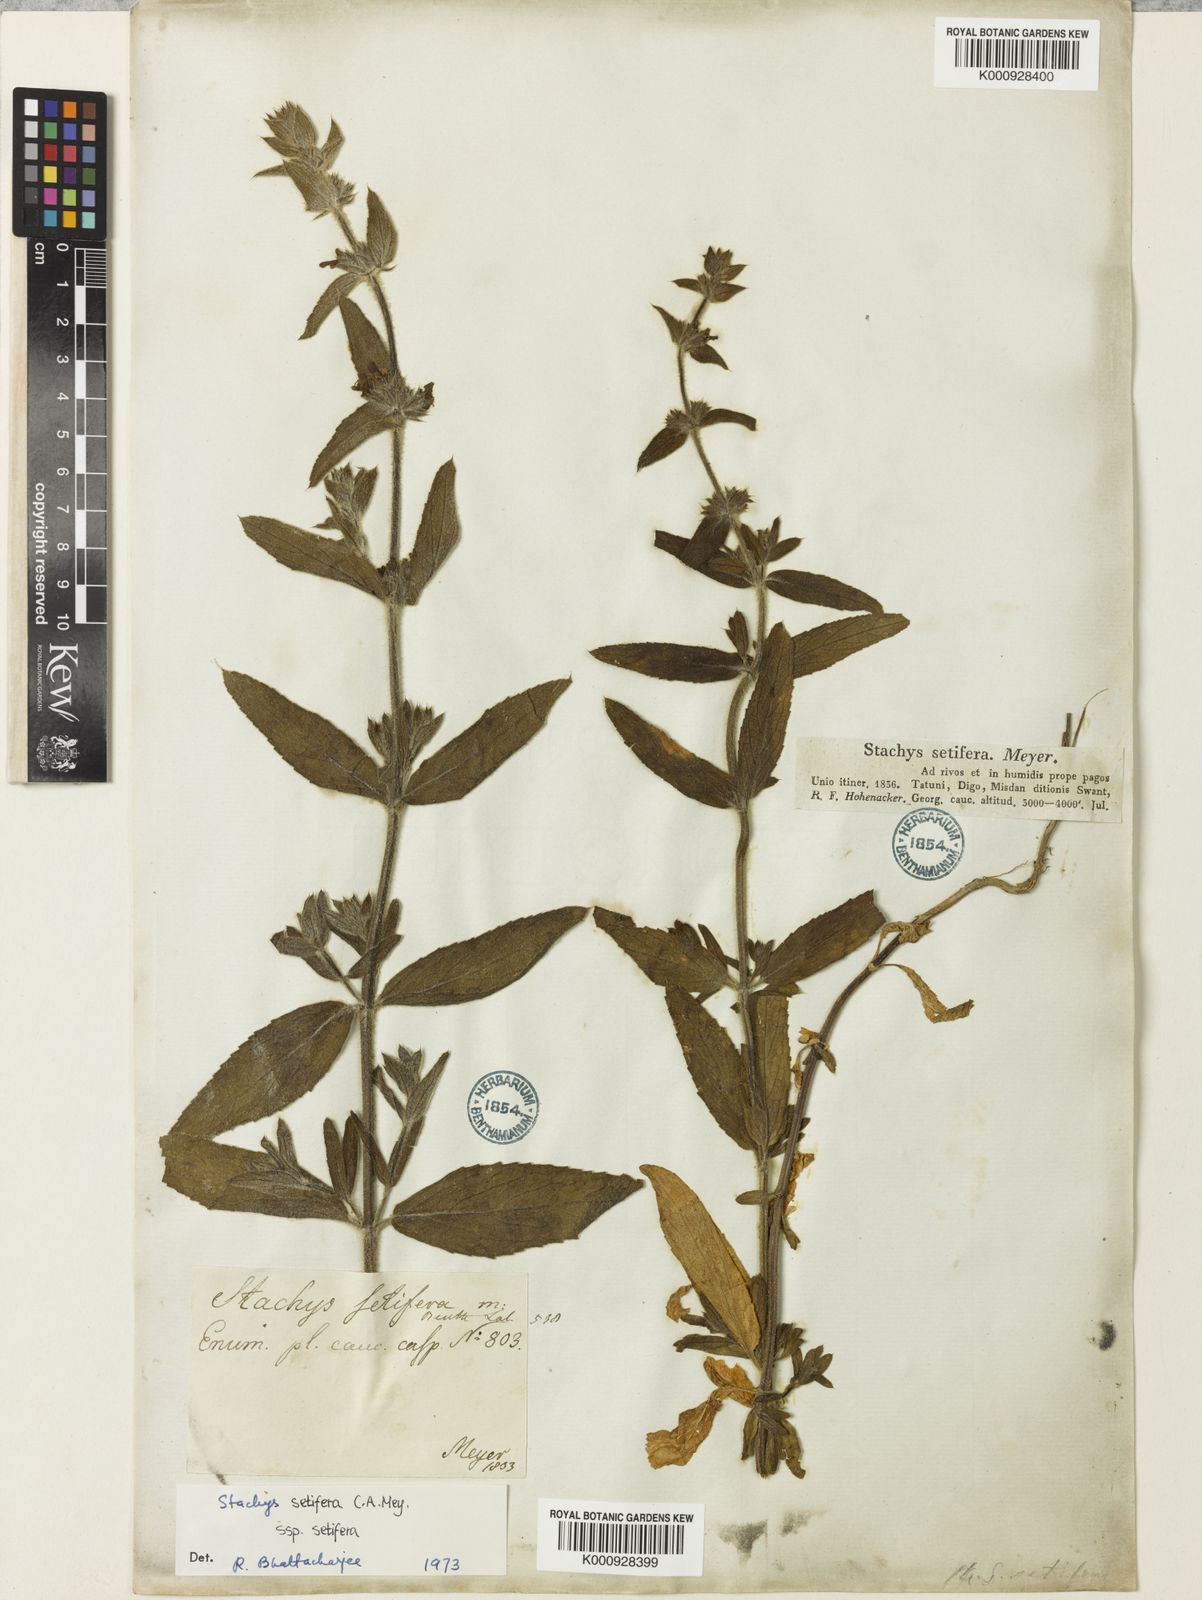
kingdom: Plantae
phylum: Tracheophyta
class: Magnoliopsida
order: Lamiales
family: Lamiaceae
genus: Stachys
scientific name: Stachys setifera
